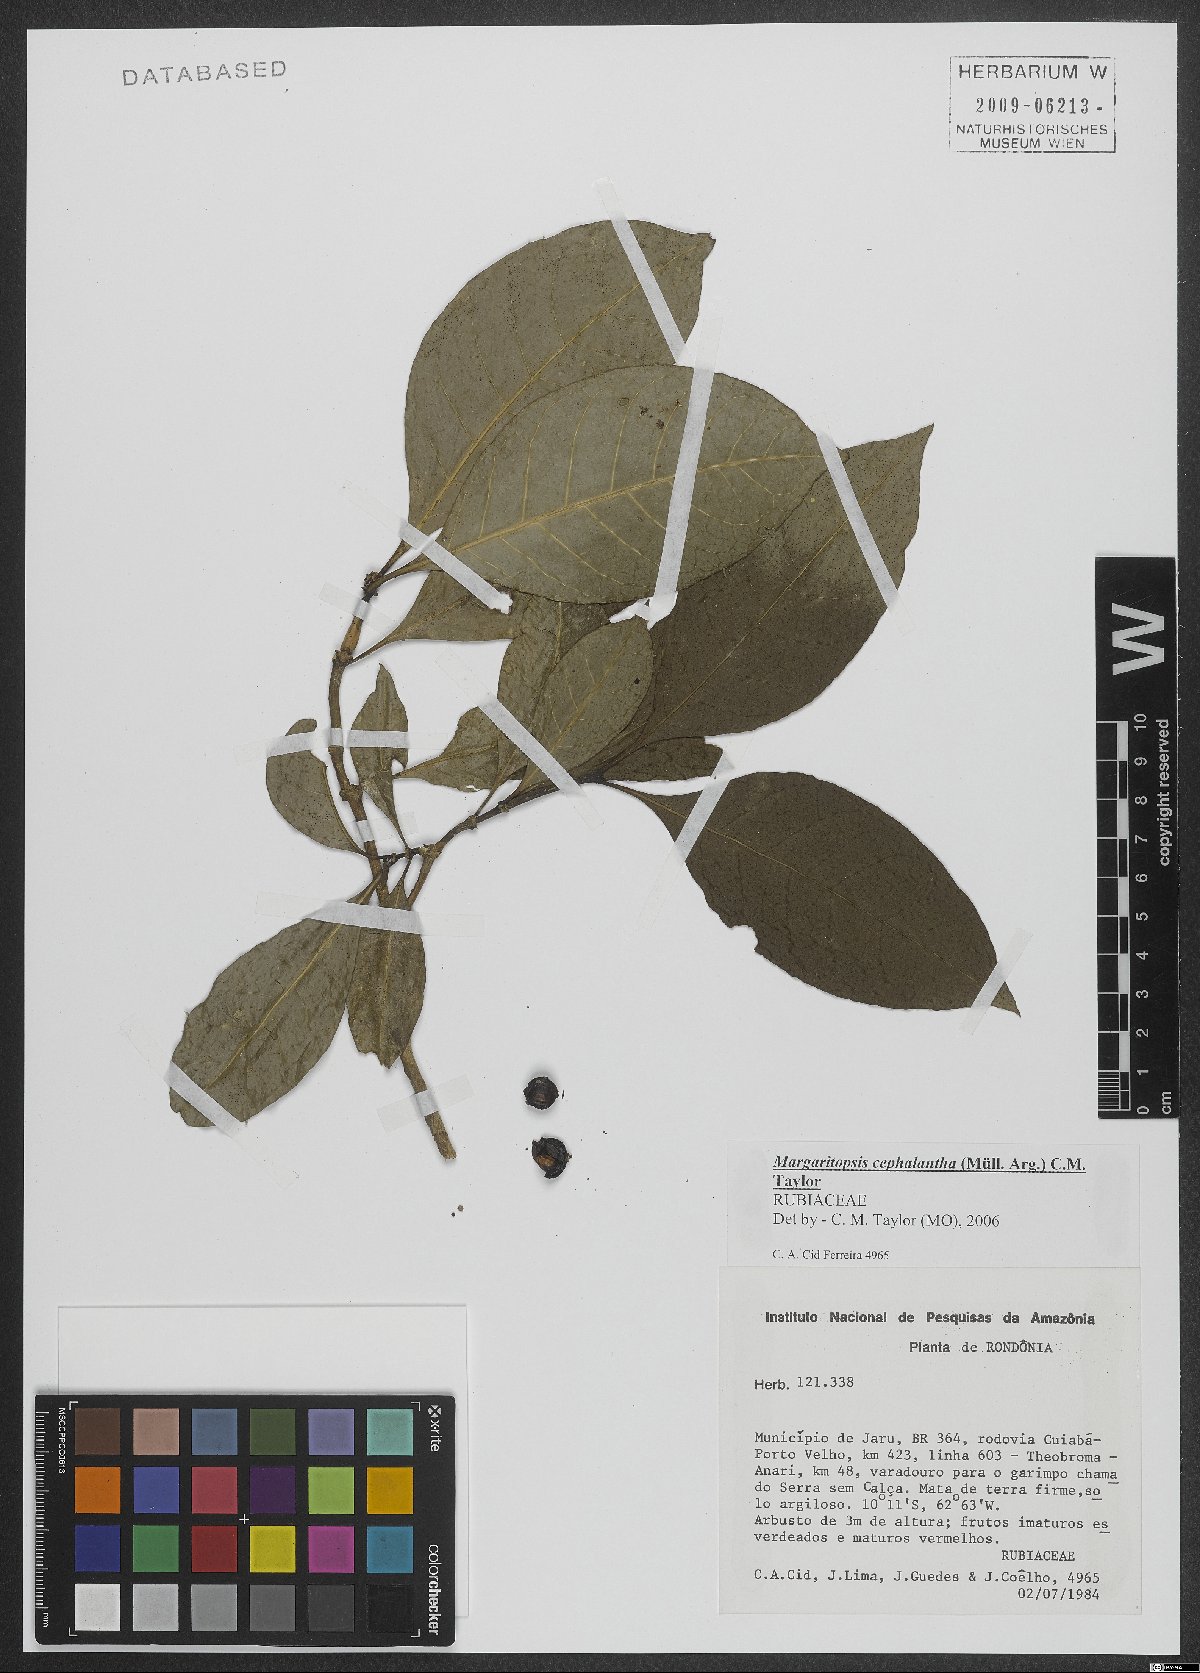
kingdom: Plantae
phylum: Tracheophyta
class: Magnoliopsida
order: Gentianales
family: Rubiaceae
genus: Eumachia
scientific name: Eumachia cephalantha
